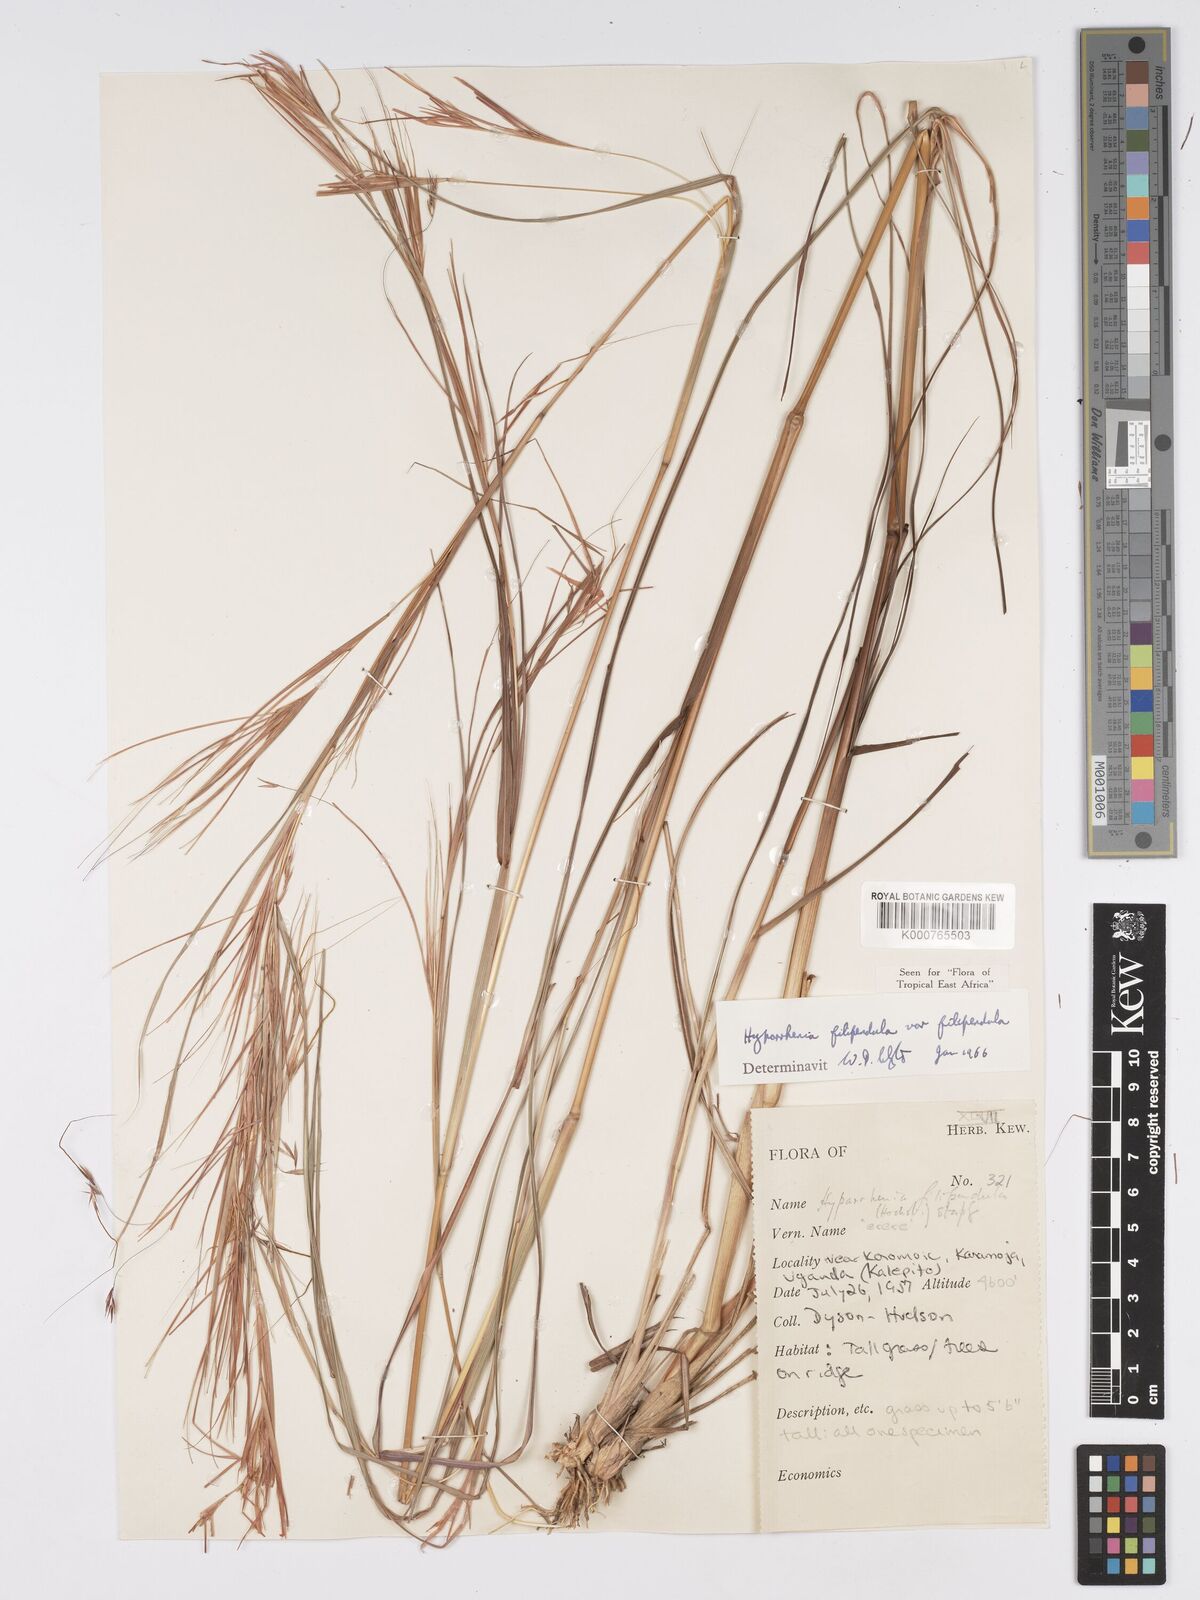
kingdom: Plantae
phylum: Tracheophyta
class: Liliopsida
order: Poales
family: Poaceae
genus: Hyparrhenia
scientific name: Hyparrhenia filipendula
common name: Tambookie grass
